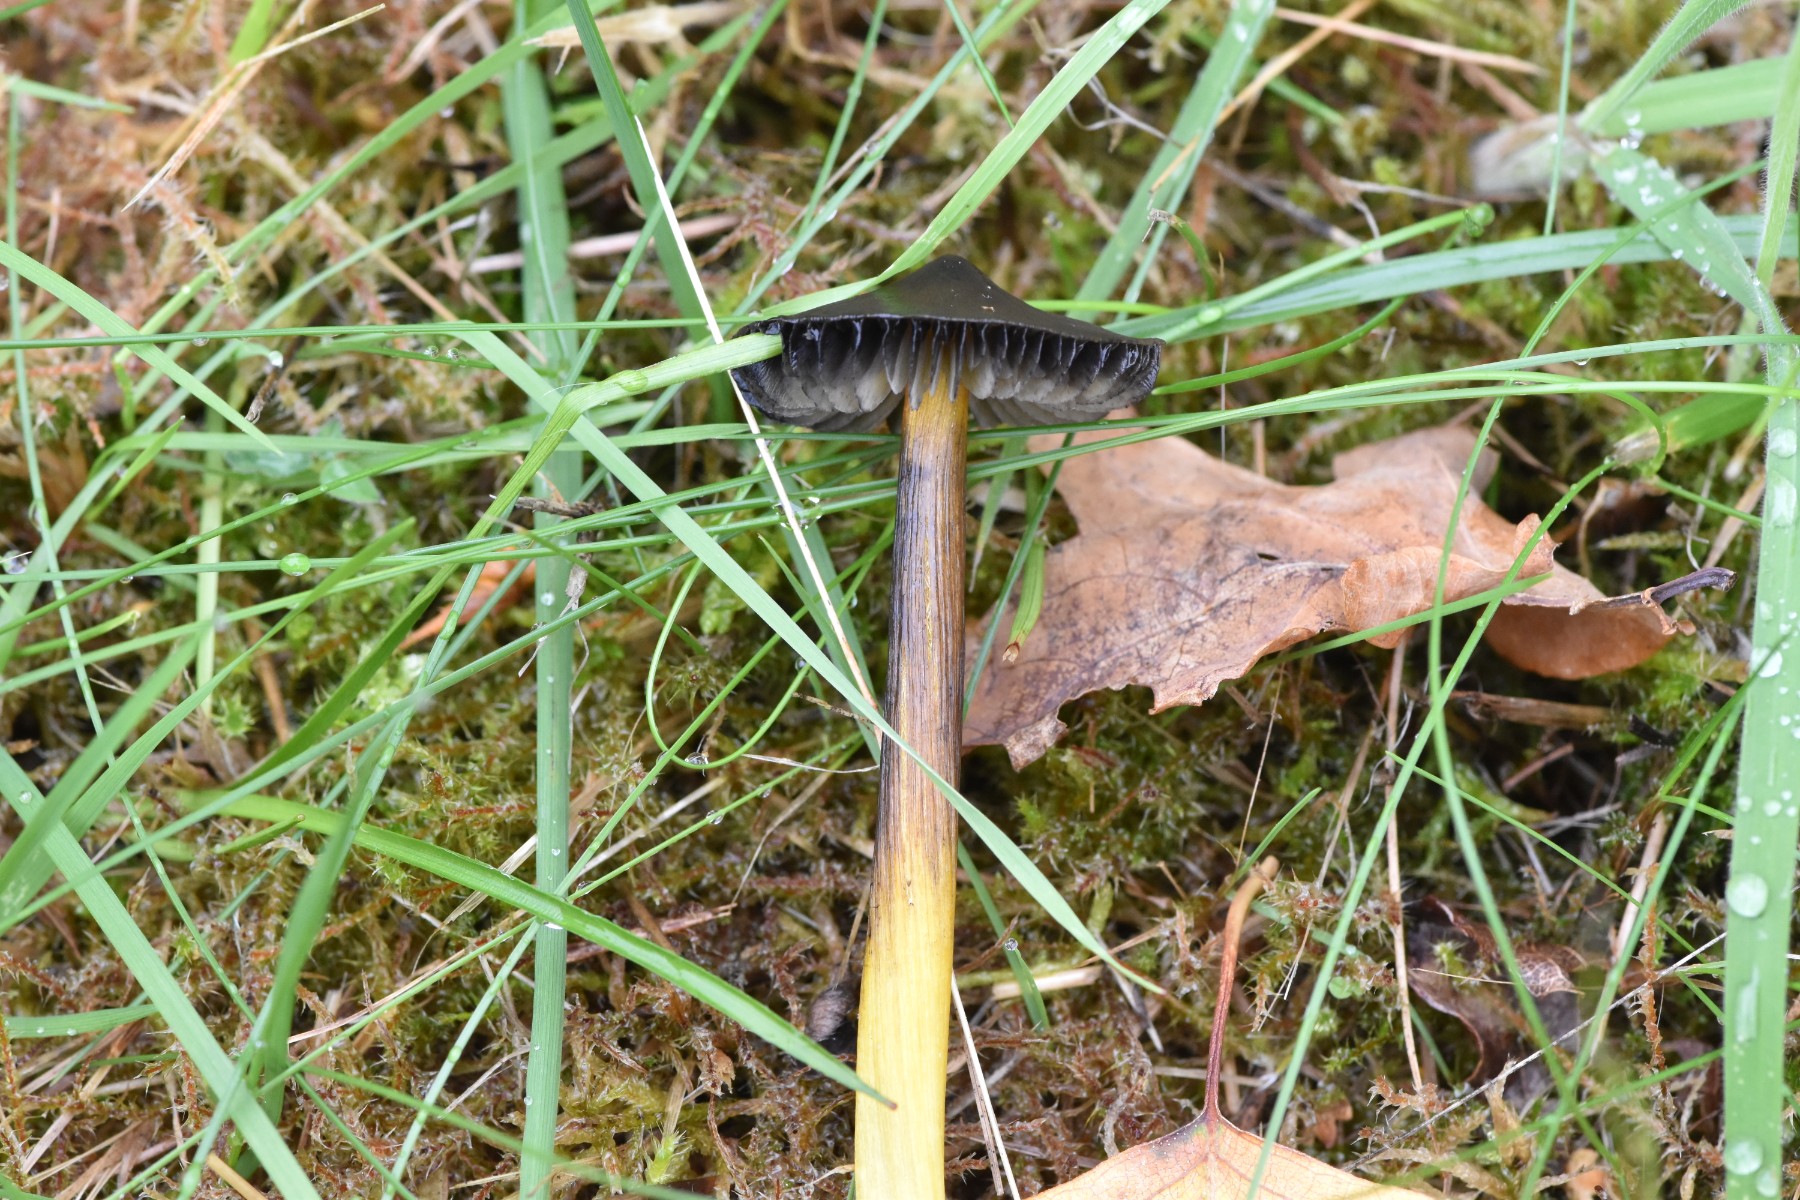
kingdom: Fungi
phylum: Basidiomycota
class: Agaricomycetes
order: Agaricales
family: Hygrophoraceae
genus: Hygrocybe
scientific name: Hygrocybe conica
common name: kegle-vokshat
